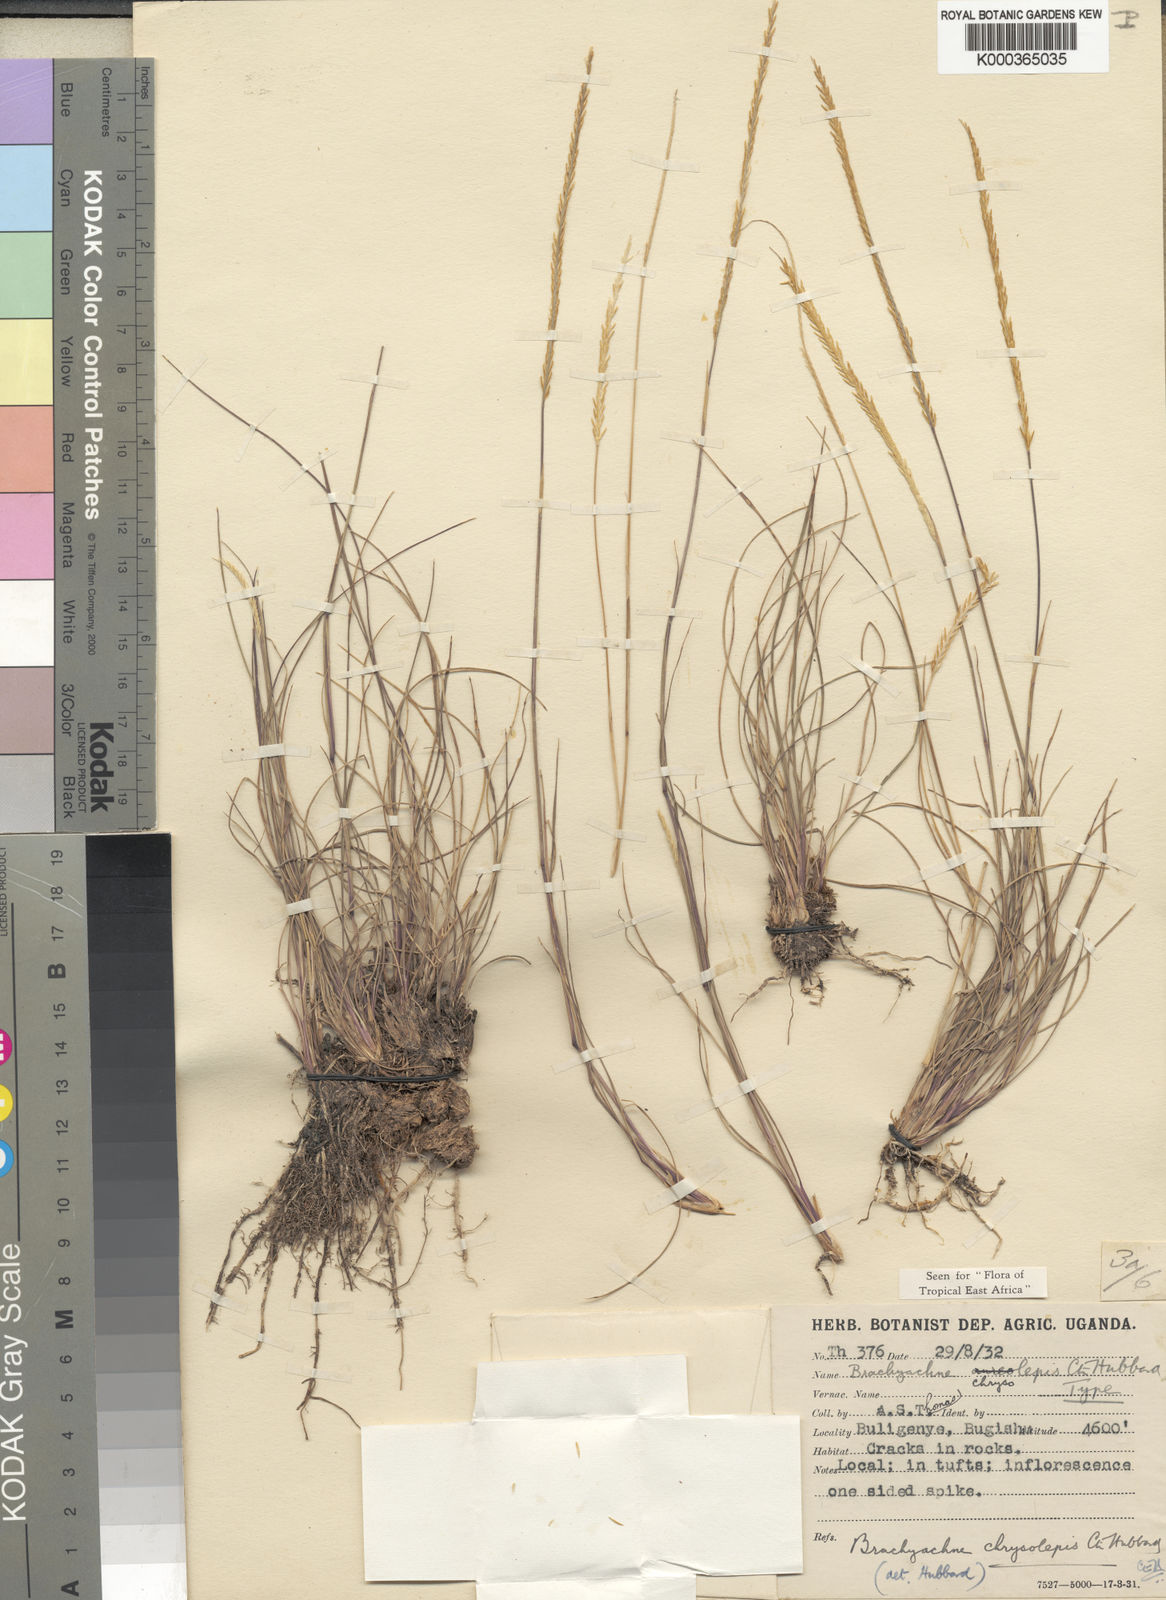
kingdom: Plantae
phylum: Tracheophyta
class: Liliopsida
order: Poales
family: Poaceae
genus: Micrachne
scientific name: Micrachne patentiflora
